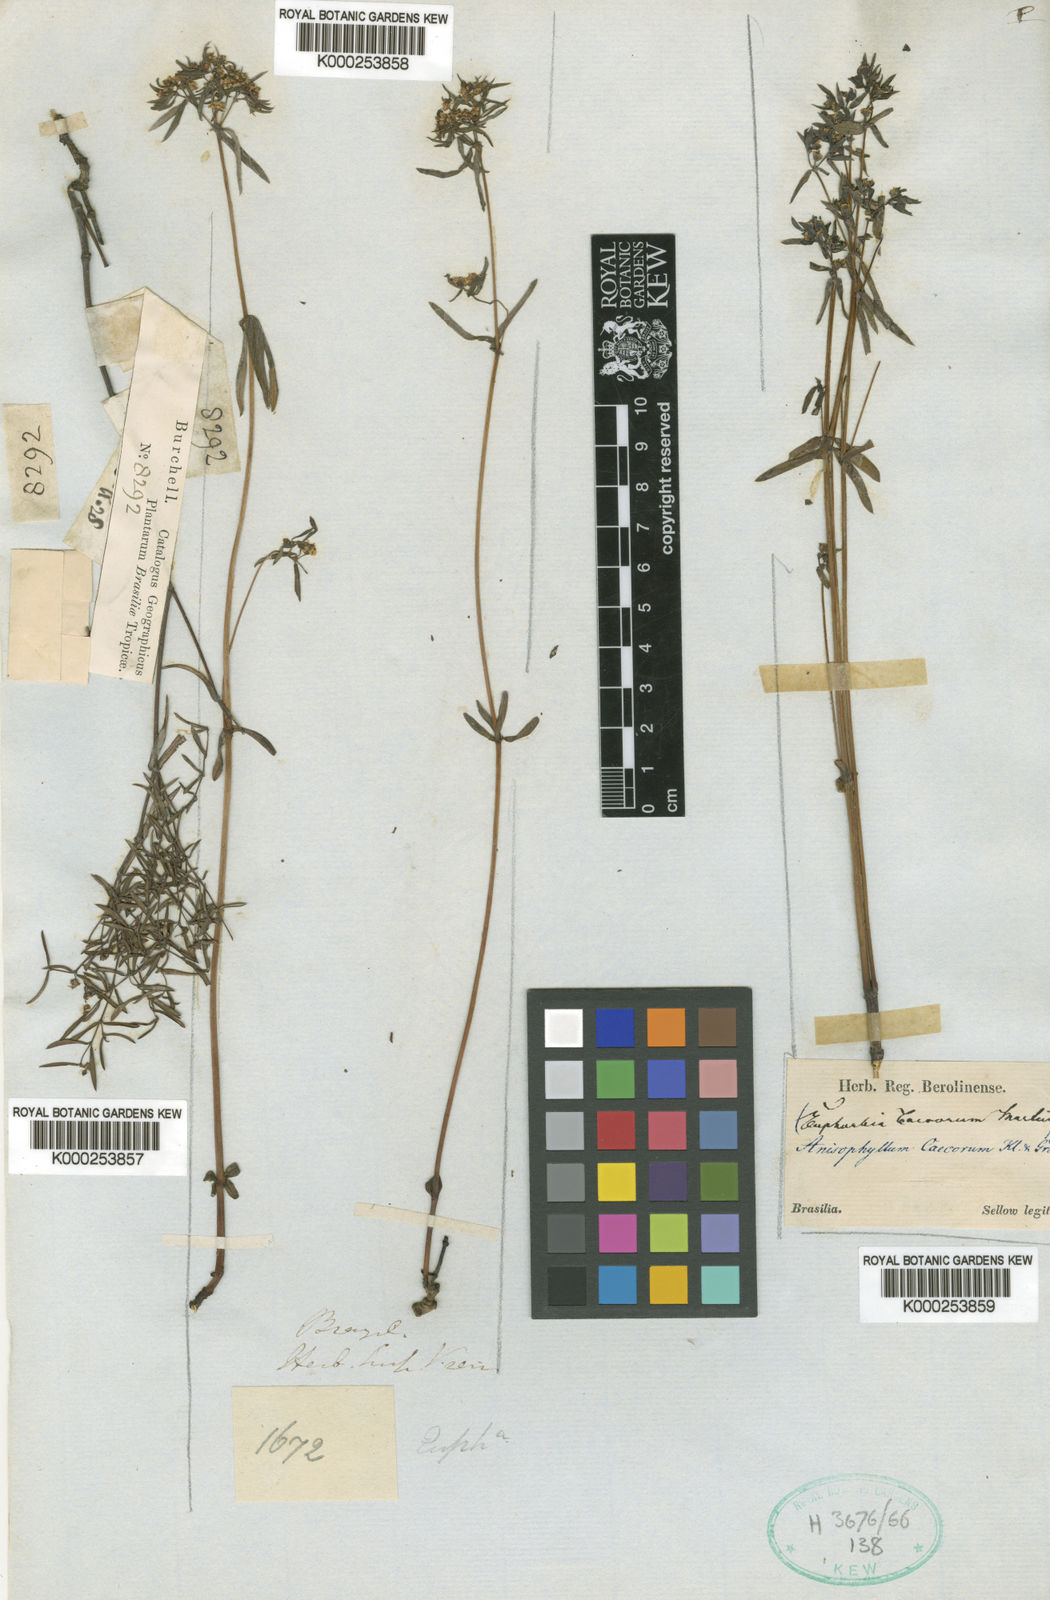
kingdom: Plantae
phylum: Tracheophyta
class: Magnoliopsida
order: Malpighiales
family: Euphorbiaceae
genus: Euphorbia
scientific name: Euphorbia potentilloides
